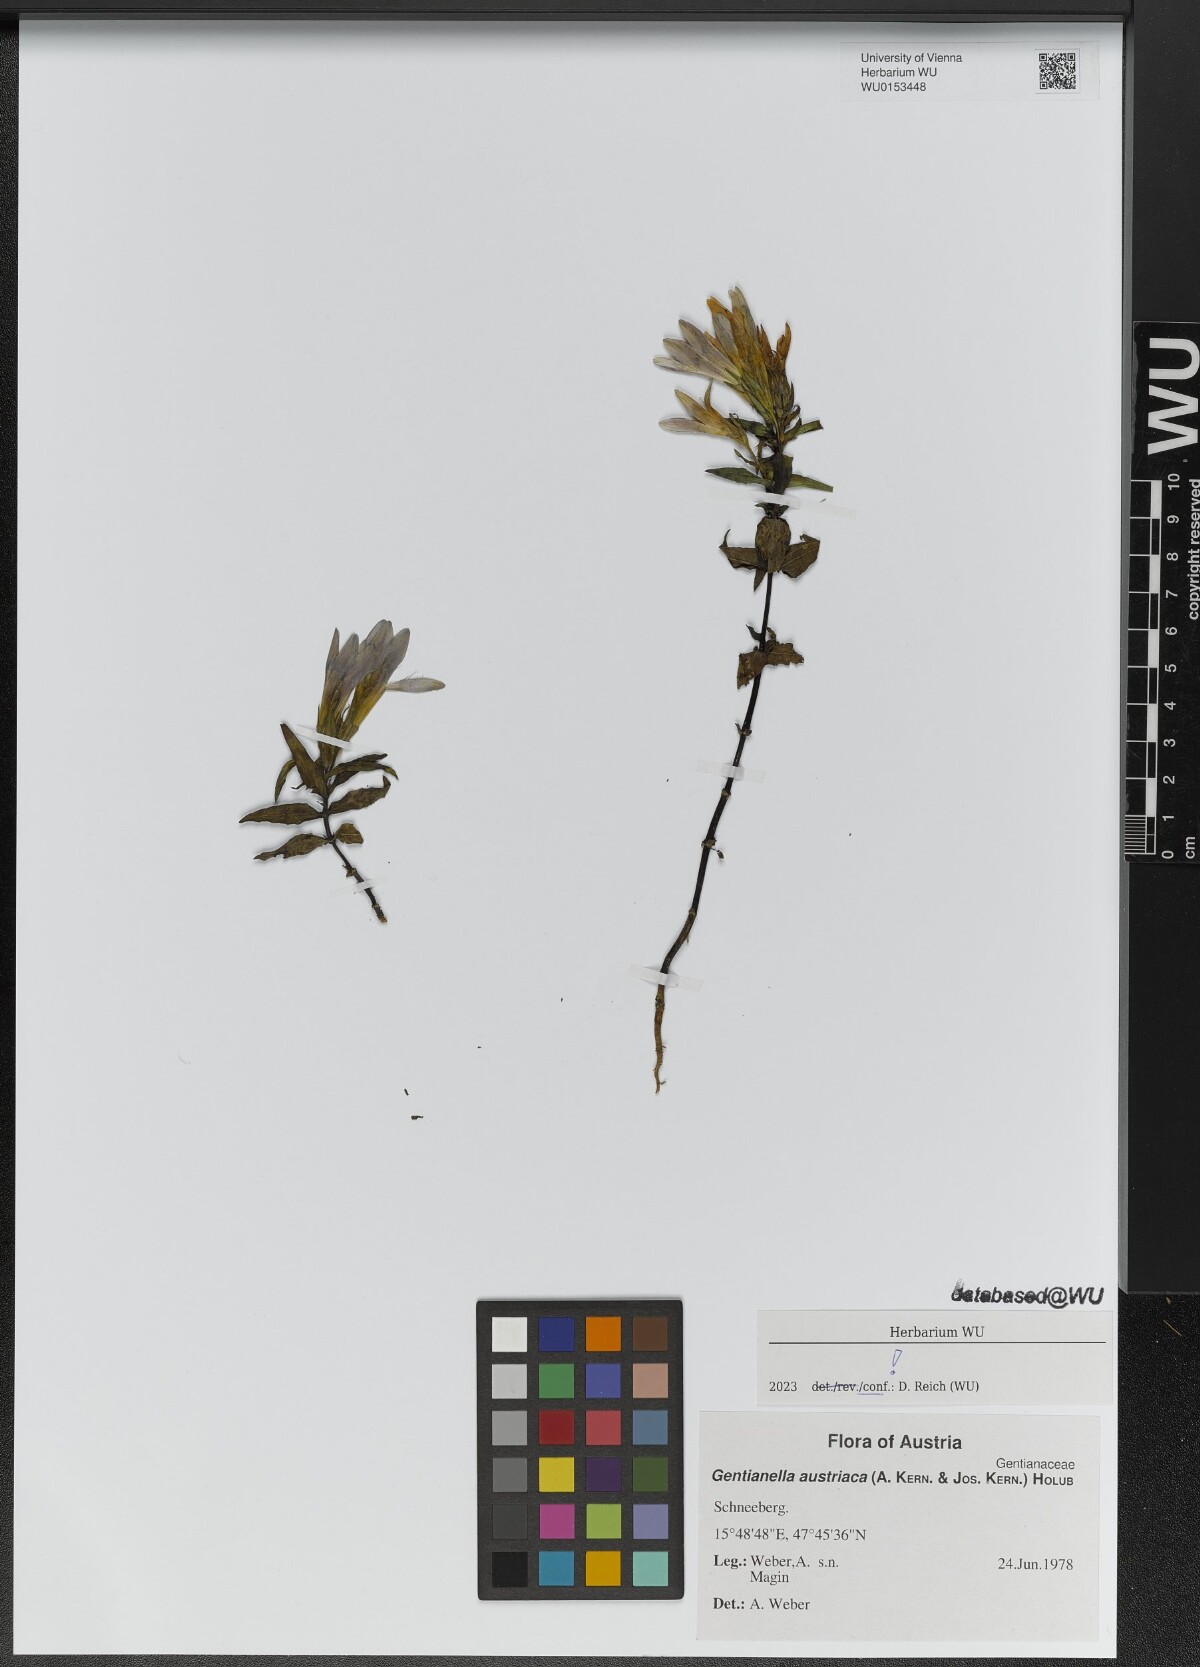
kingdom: Plantae
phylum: Tracheophyta
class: Magnoliopsida
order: Gentianales
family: Gentianaceae
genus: Gentianella
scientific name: Gentianella austriaca
